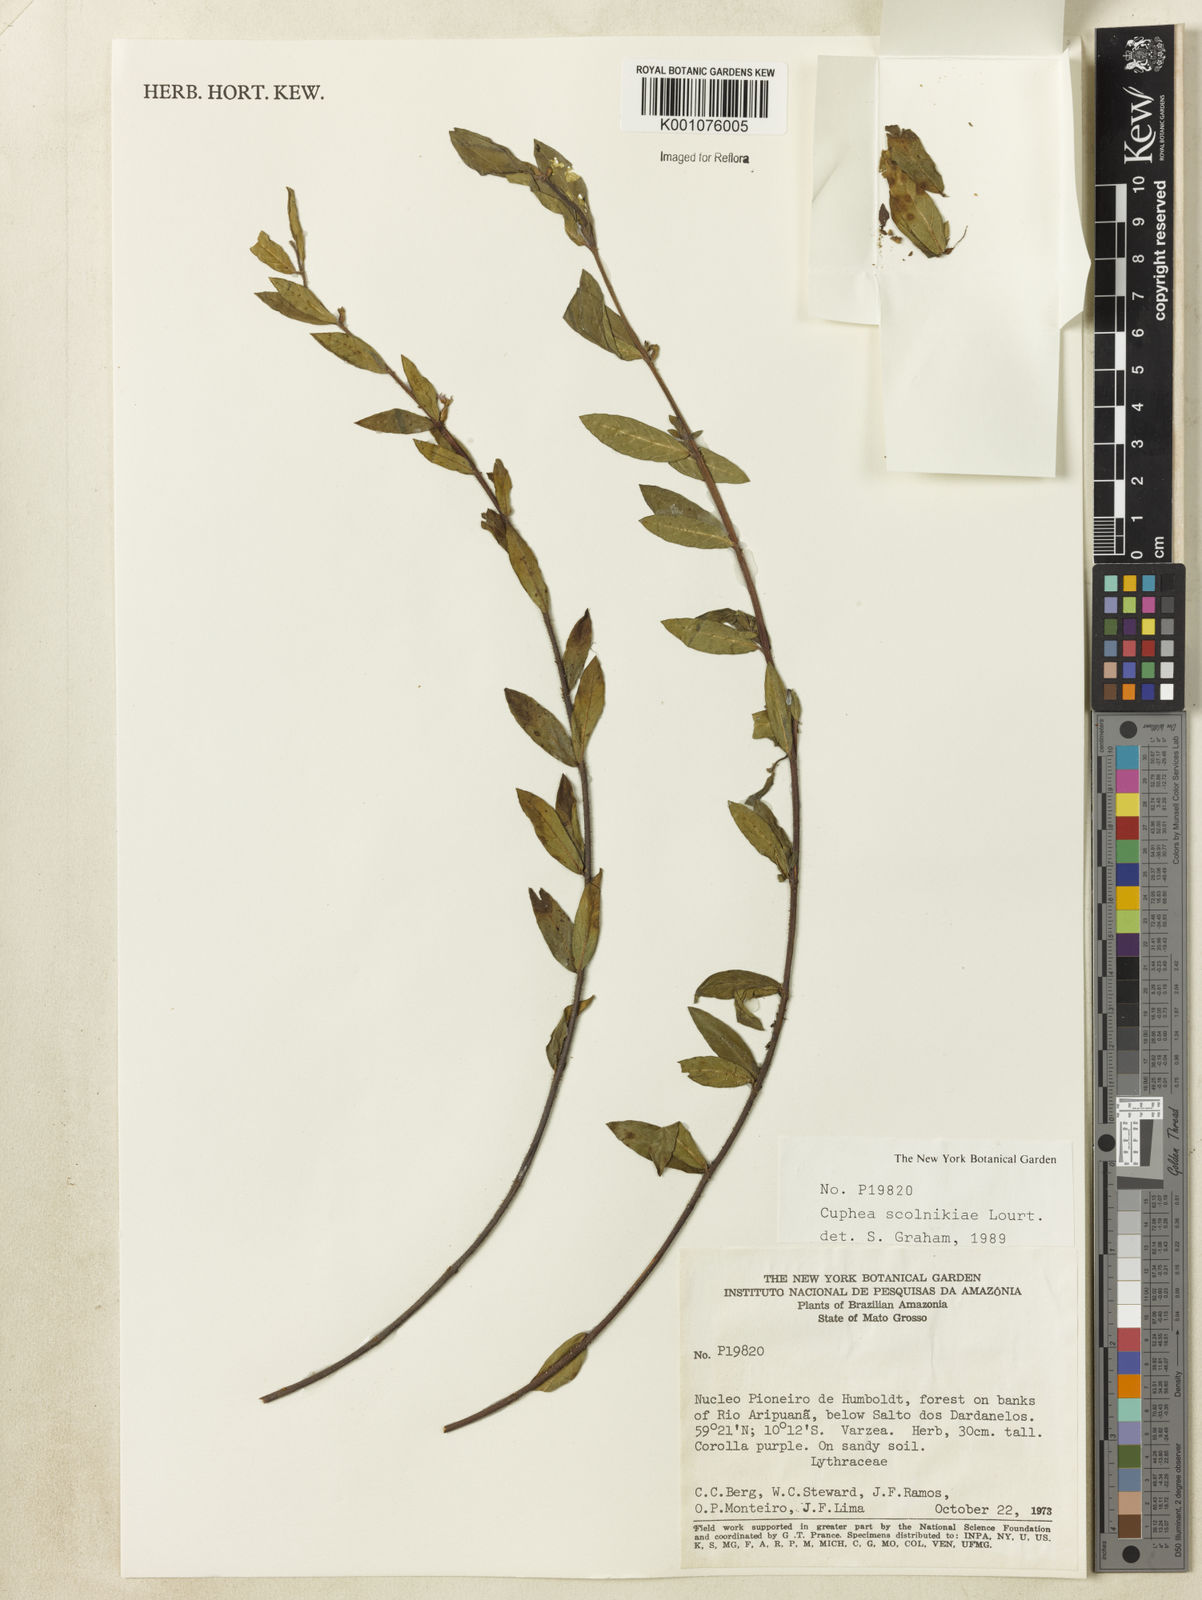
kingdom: Plantae
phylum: Tracheophyta
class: Magnoliopsida
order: Myrtales
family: Lythraceae
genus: Cuphea
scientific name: Cuphea scolnikiae
